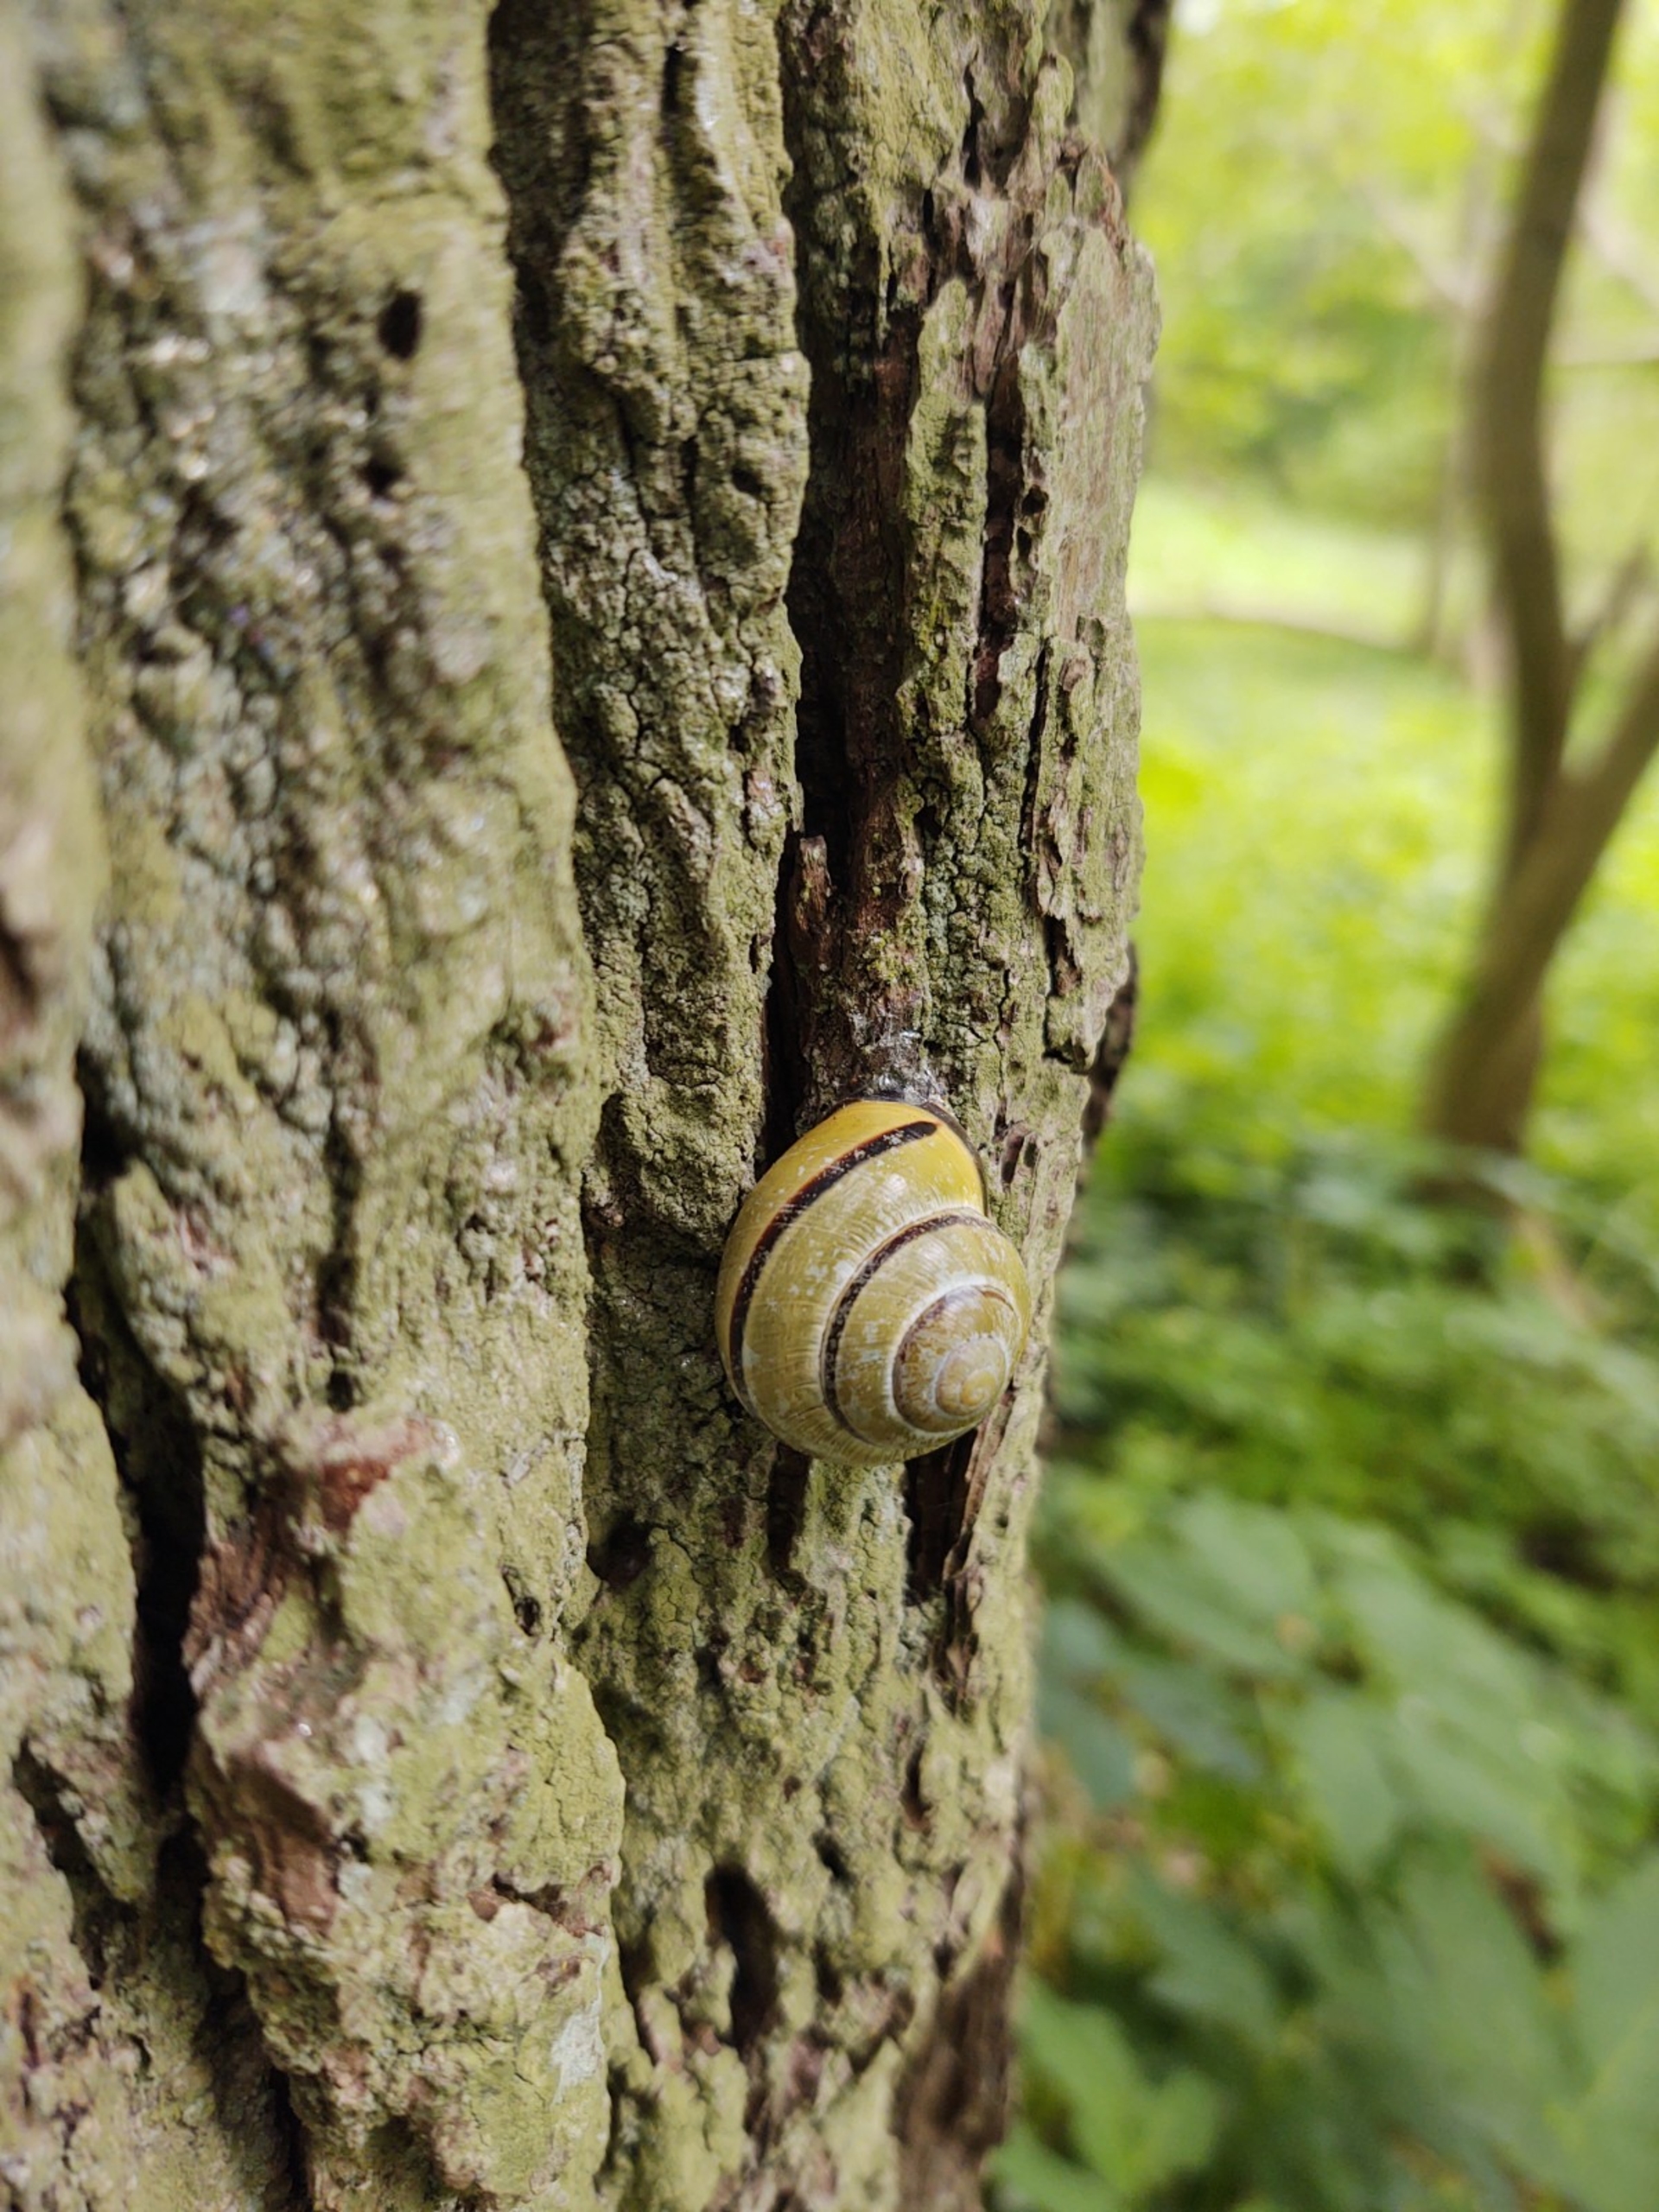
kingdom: Animalia
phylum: Mollusca
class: Gastropoda
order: Stylommatophora
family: Helicidae
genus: Cepaea
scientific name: Cepaea nemoralis
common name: Lundsnegl
